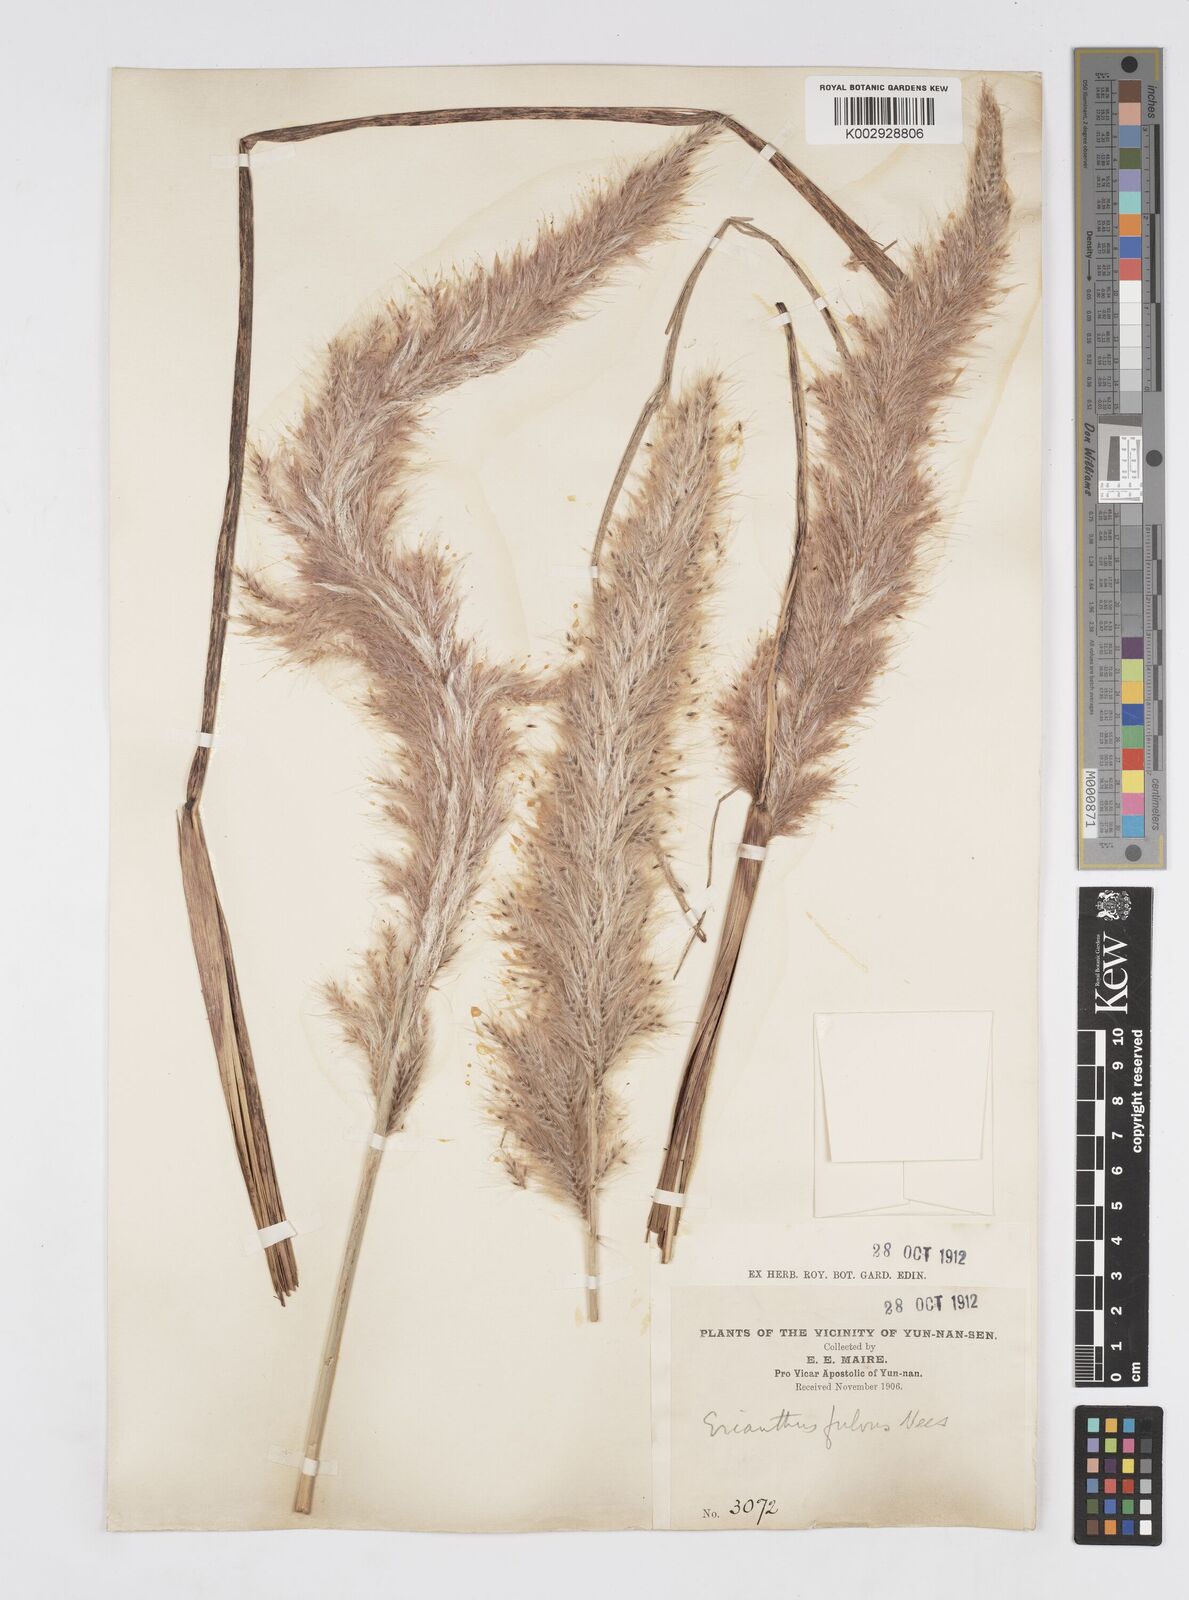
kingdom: Plantae
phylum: Tracheophyta
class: Liliopsida
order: Poales
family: Poaceae
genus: Tripidium
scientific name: Tripidium rufipilum
